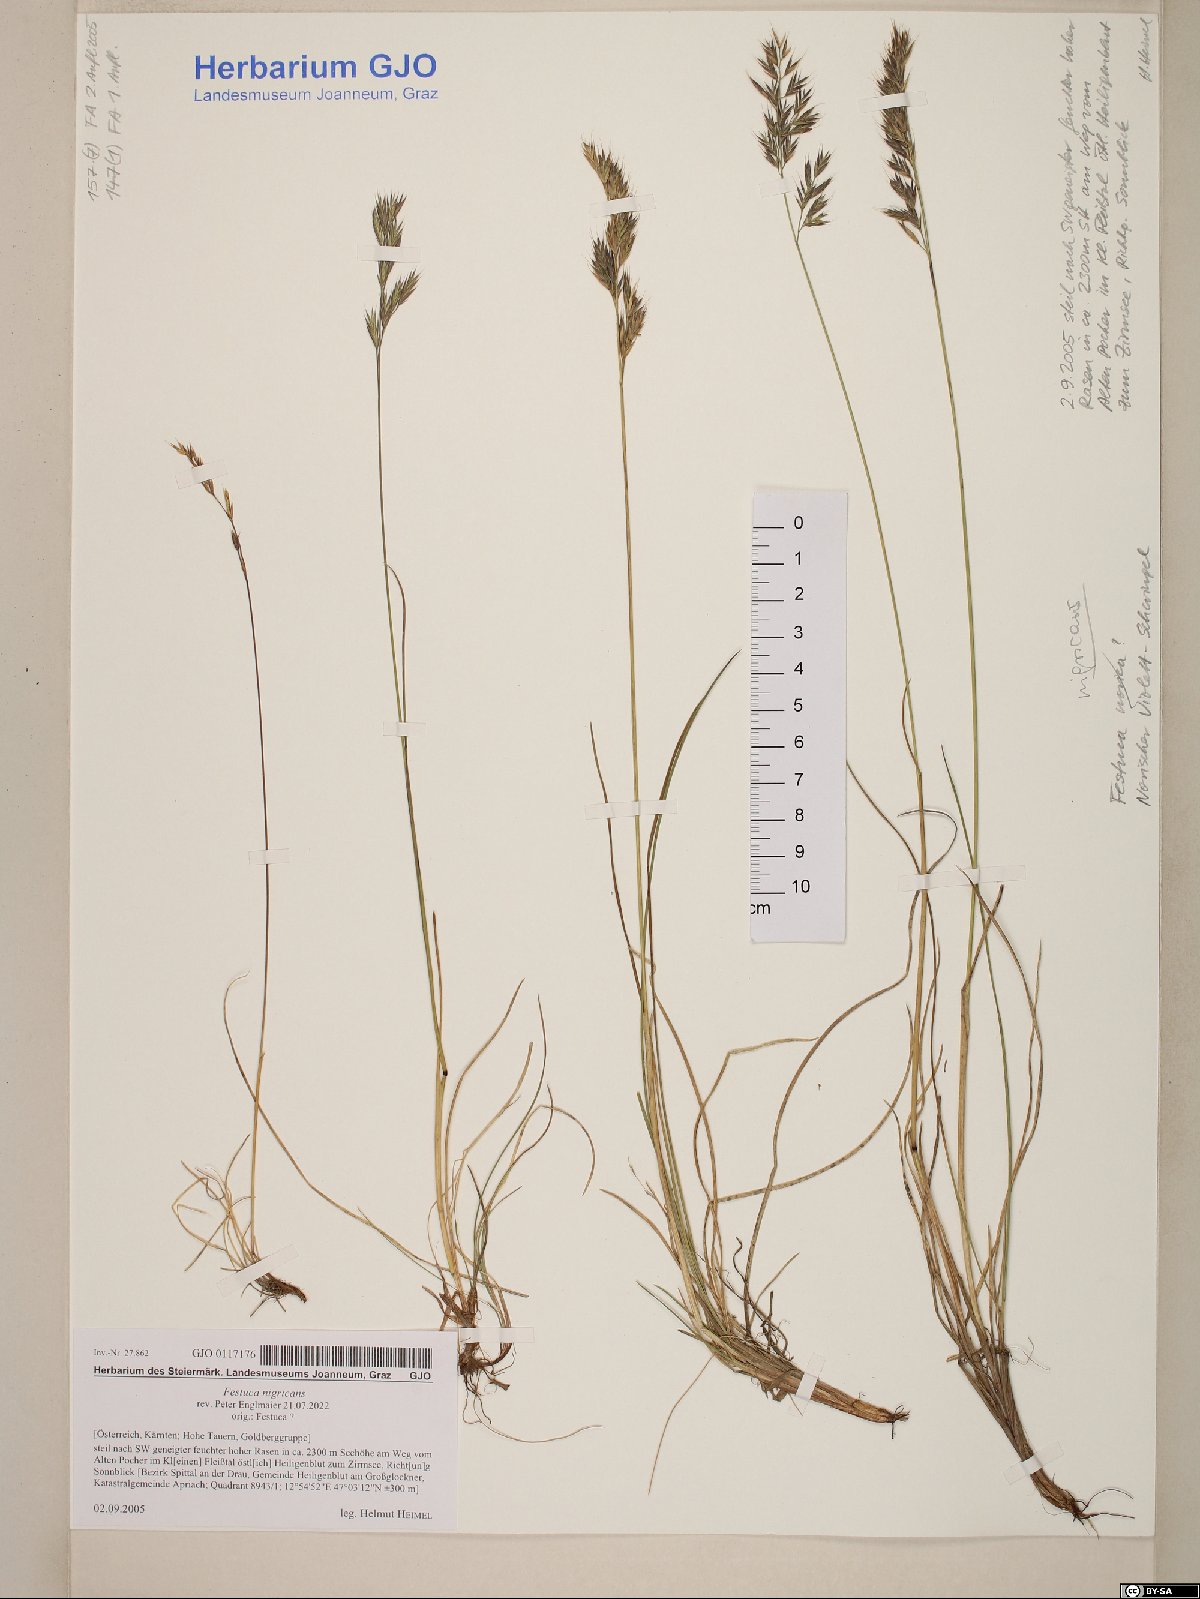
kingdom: Plantae
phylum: Tracheophyta
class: Liliopsida
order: Poales
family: Poaceae
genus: Festuca
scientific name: Festuca violacea
